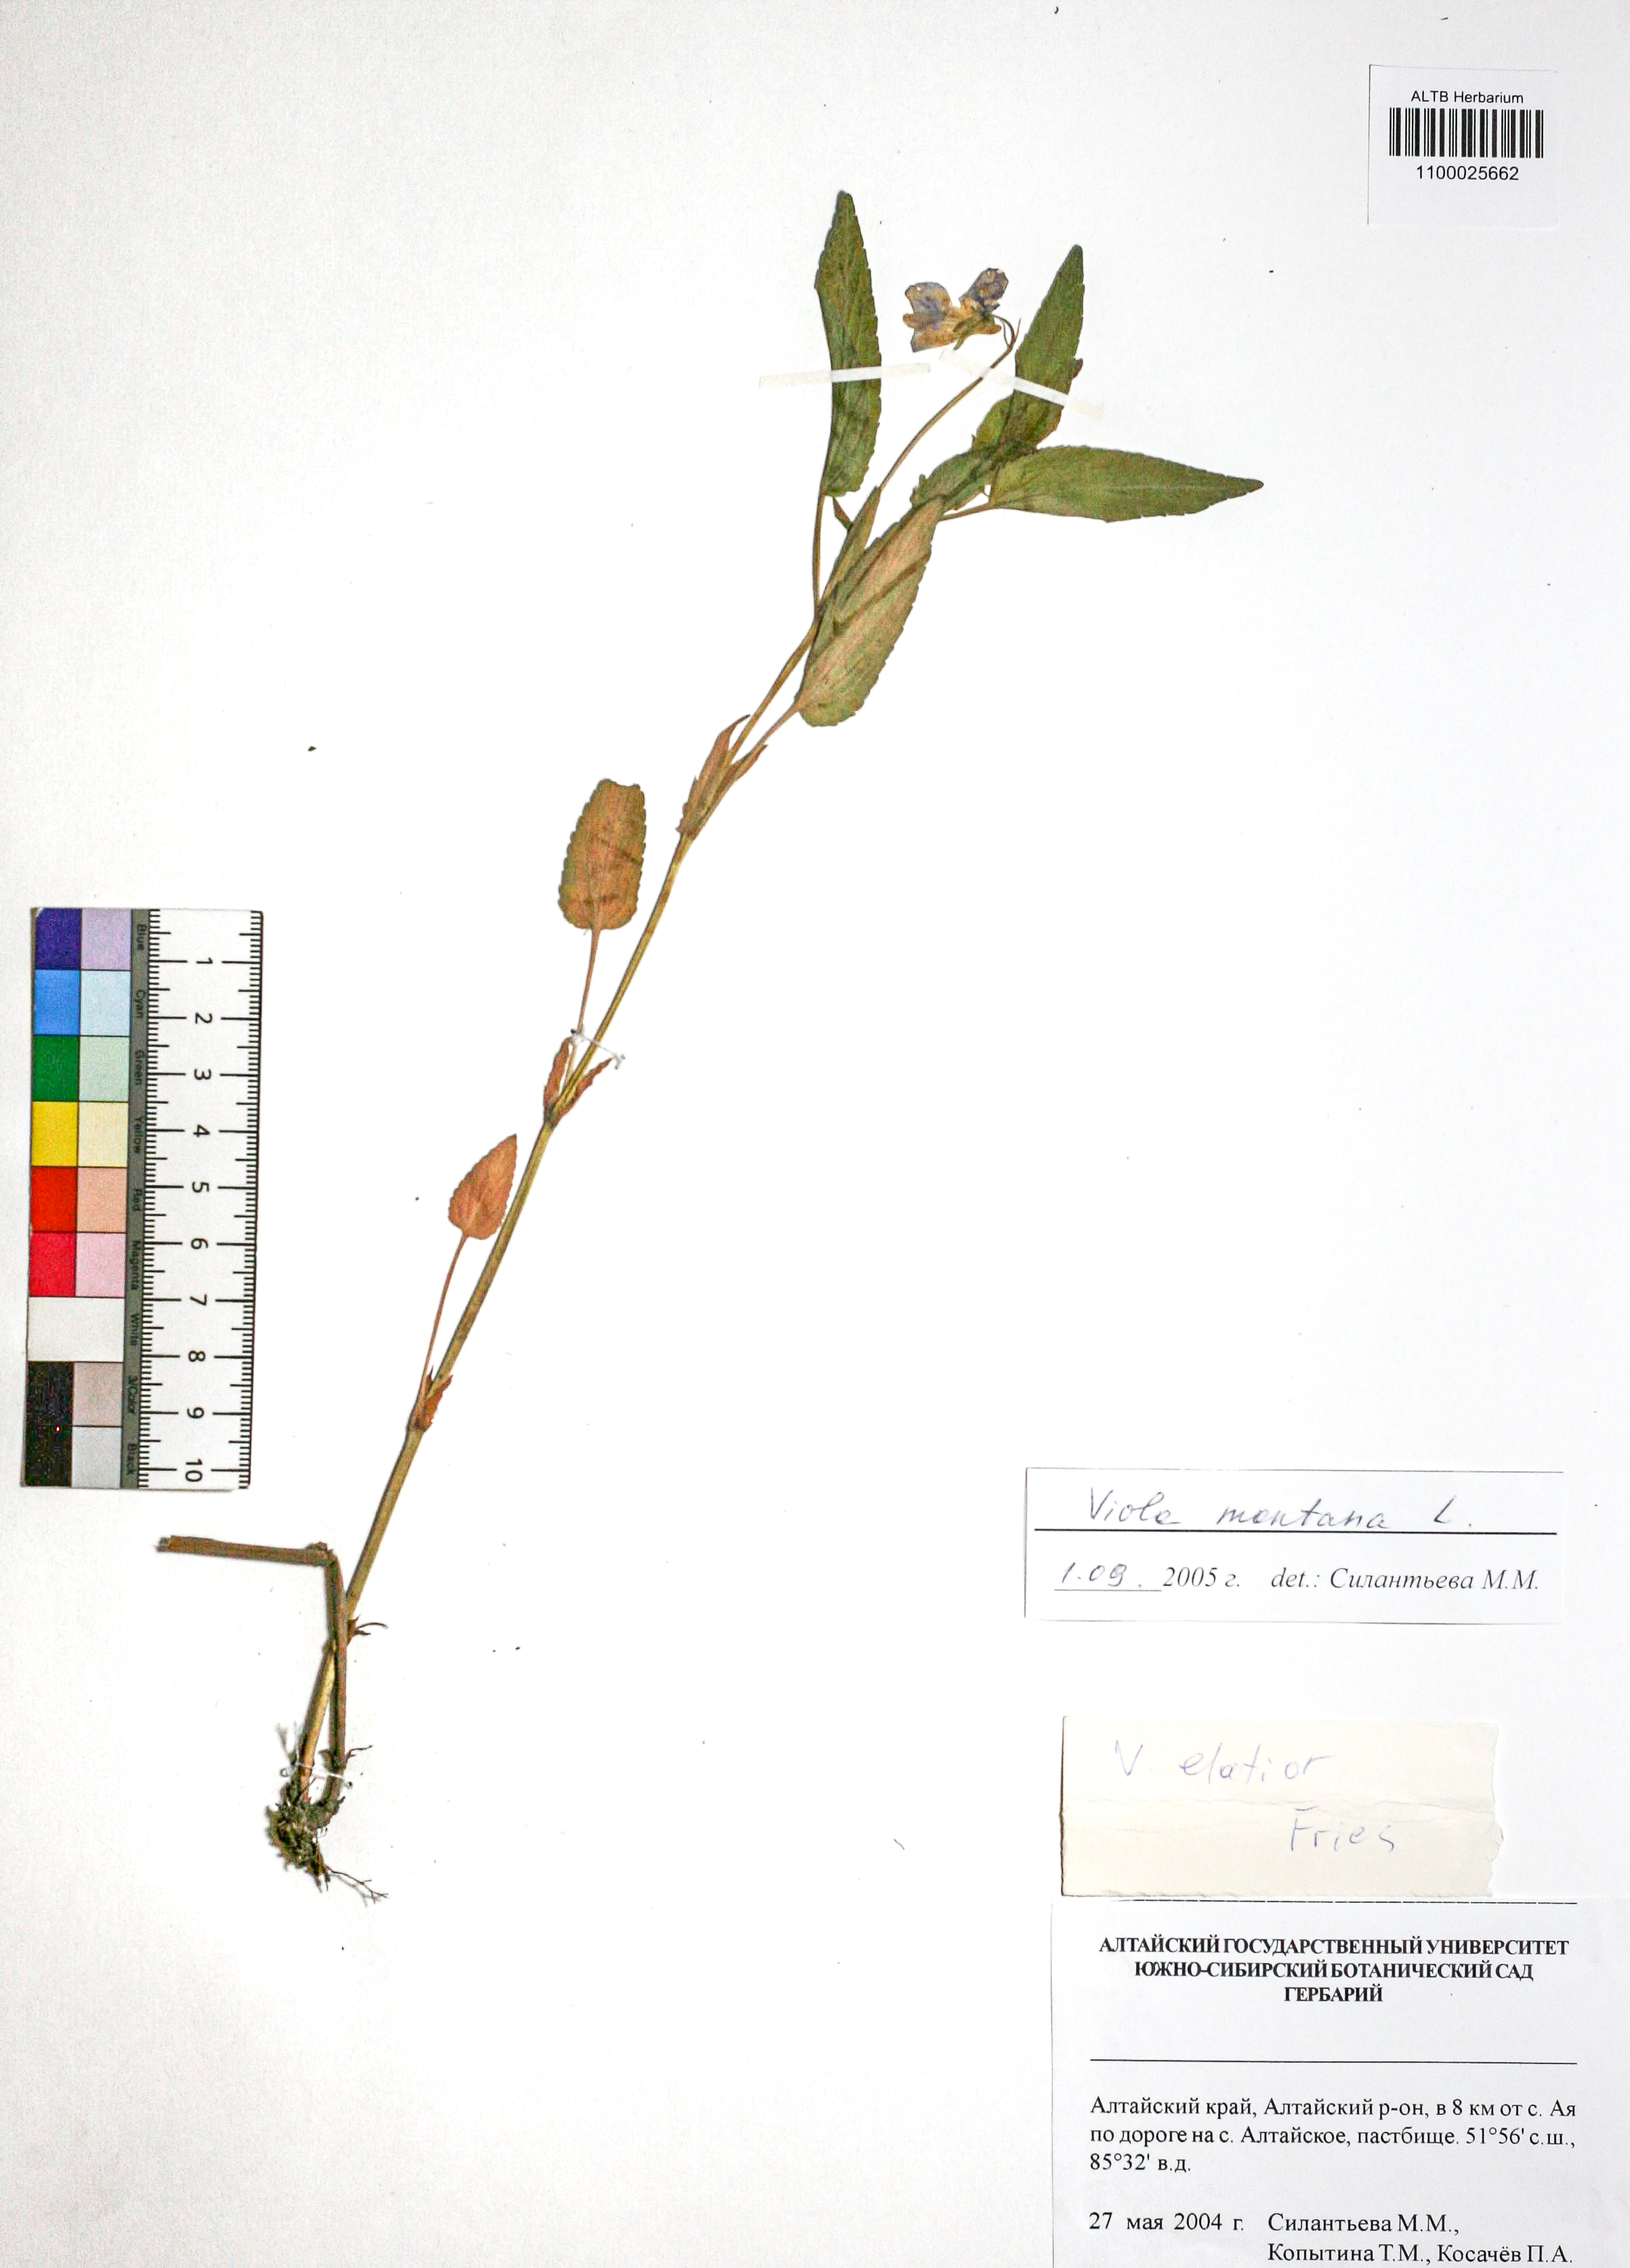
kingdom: Plantae
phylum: Tracheophyta
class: Magnoliopsida
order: Malpighiales
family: Violaceae
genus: Viola
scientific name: Viola ruppii
